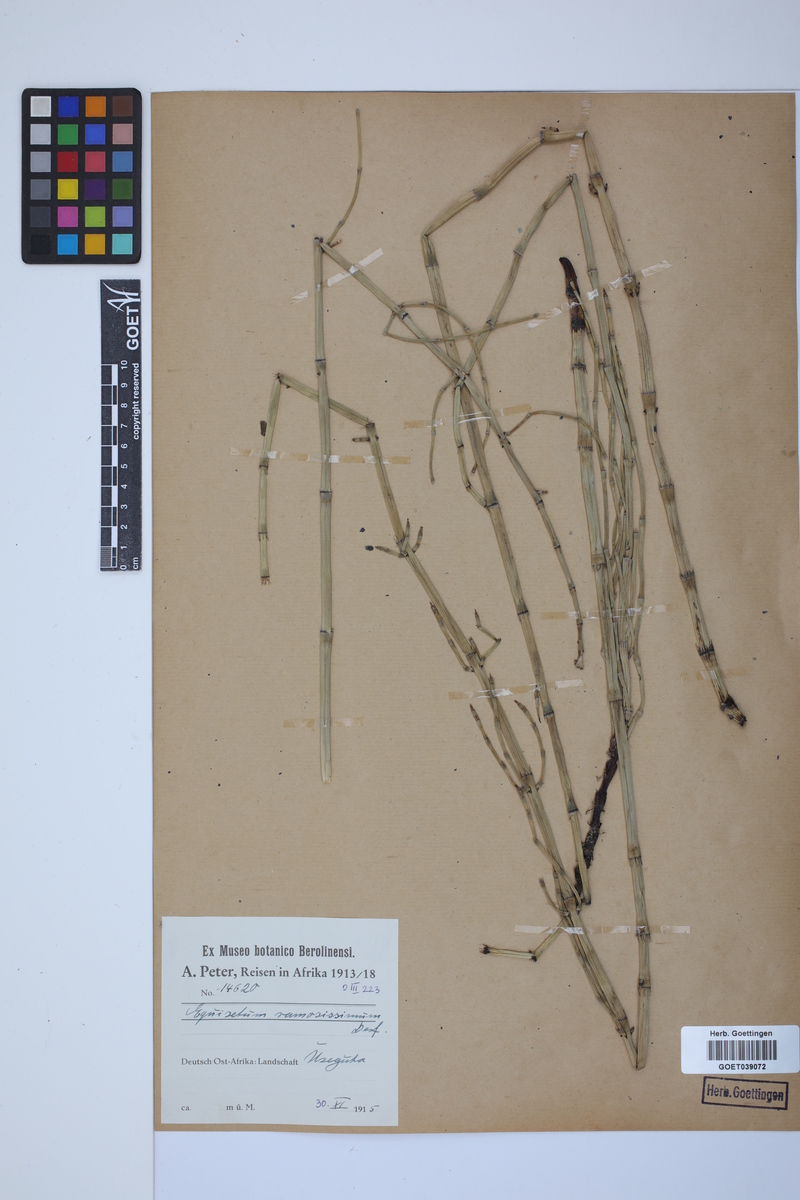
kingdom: Plantae
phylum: Tracheophyta
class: Polypodiopsida
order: Equisetales
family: Equisetaceae
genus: Equisetum
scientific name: Equisetum giganteum
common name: Giant horsetail
